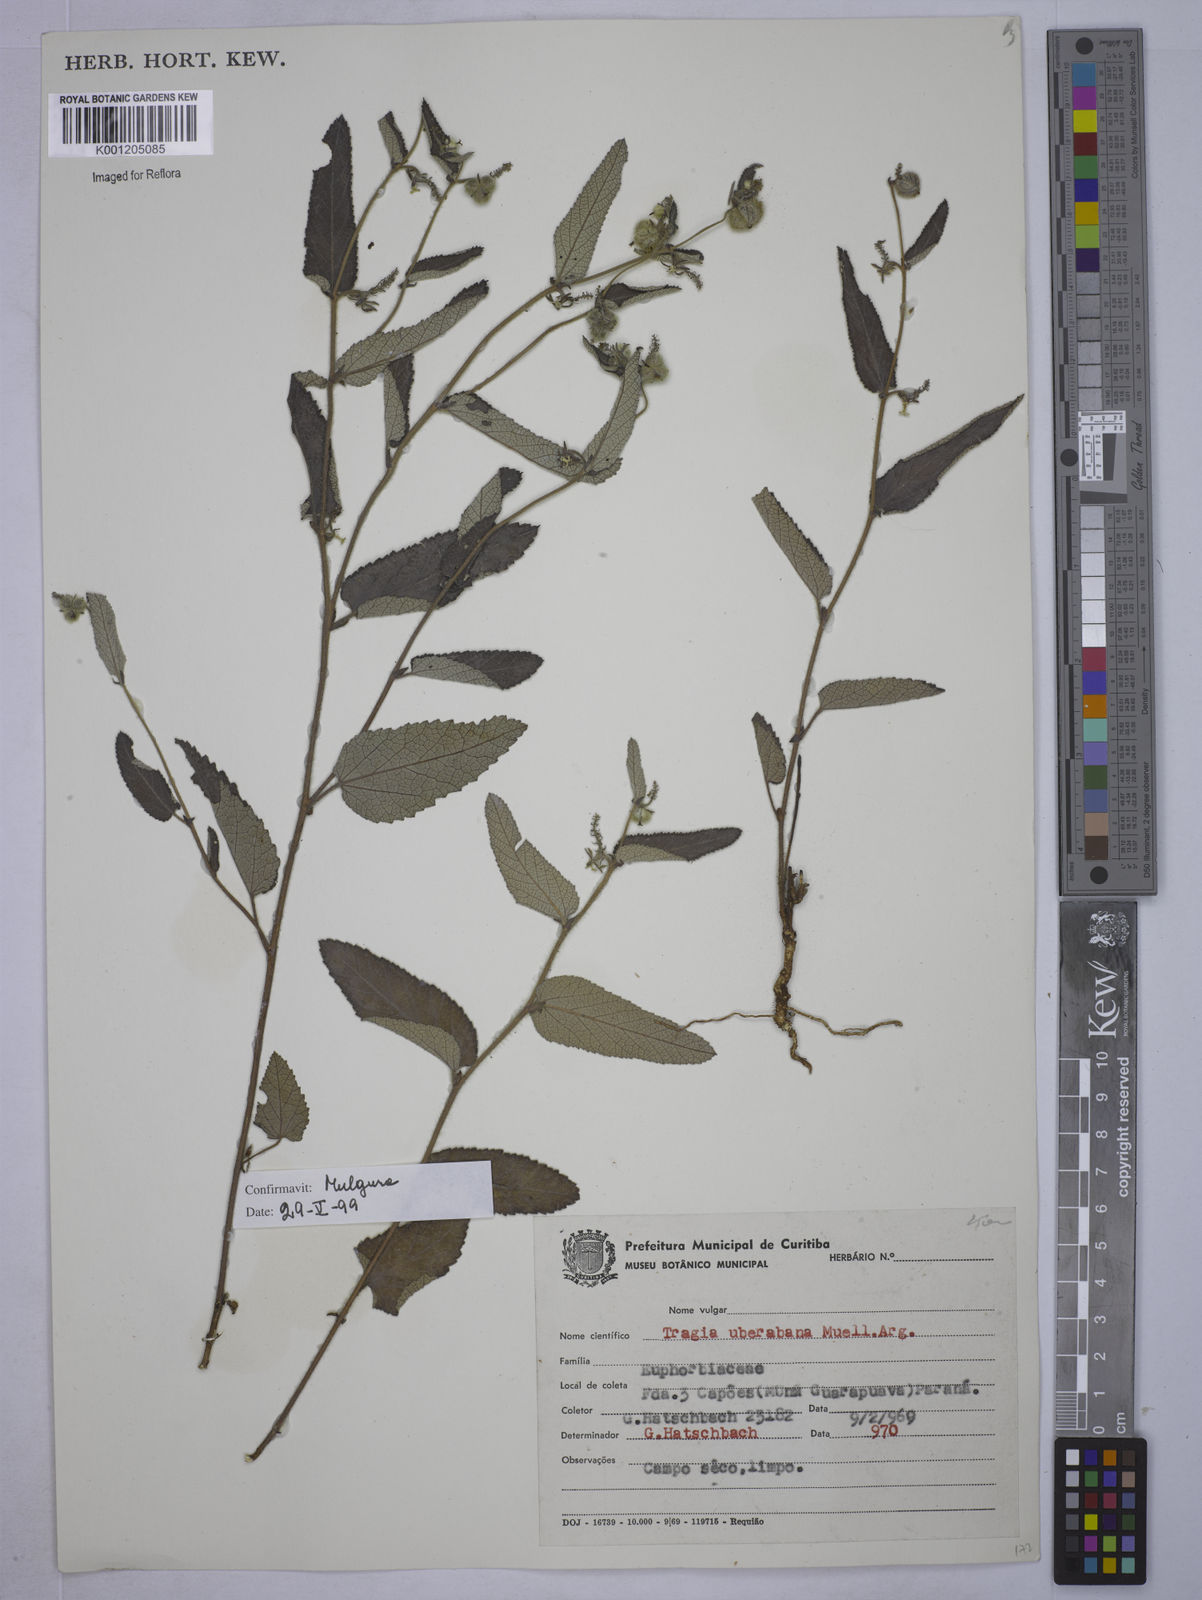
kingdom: Plantae
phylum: Tracheophyta
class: Magnoliopsida
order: Malpighiales
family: Euphorbiaceae
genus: Tragia
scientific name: Tragia
